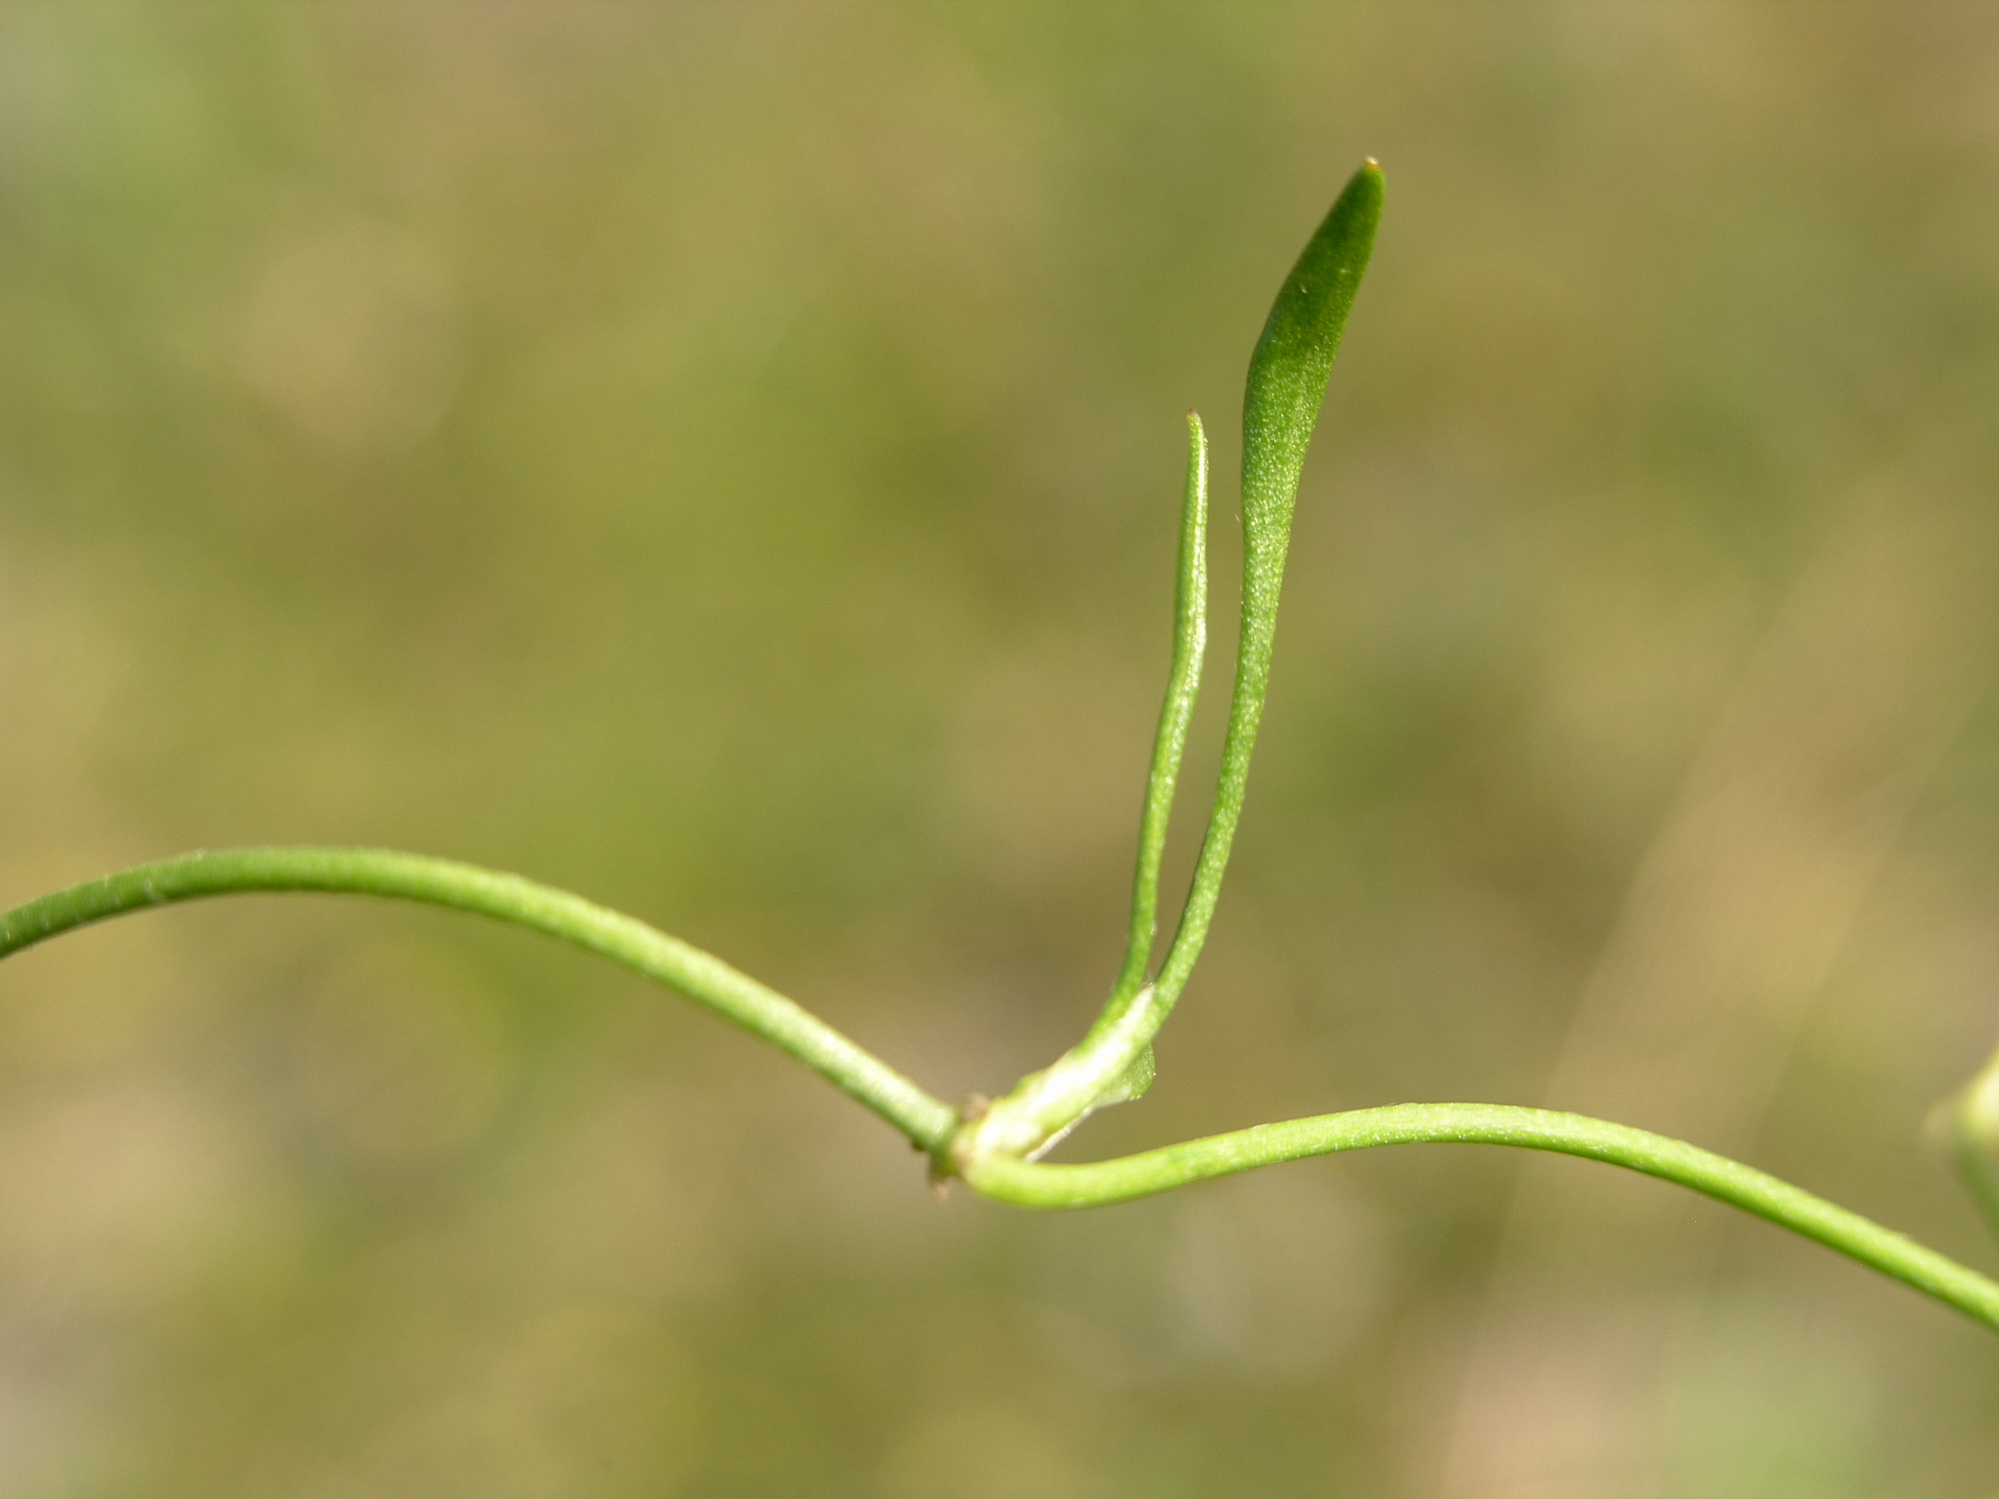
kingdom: Plantae
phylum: Tracheophyta
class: Magnoliopsida
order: Ranunculales
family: Ranunculaceae
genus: Ranunculus
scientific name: Ranunculus reptans
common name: Creeping spearwort
